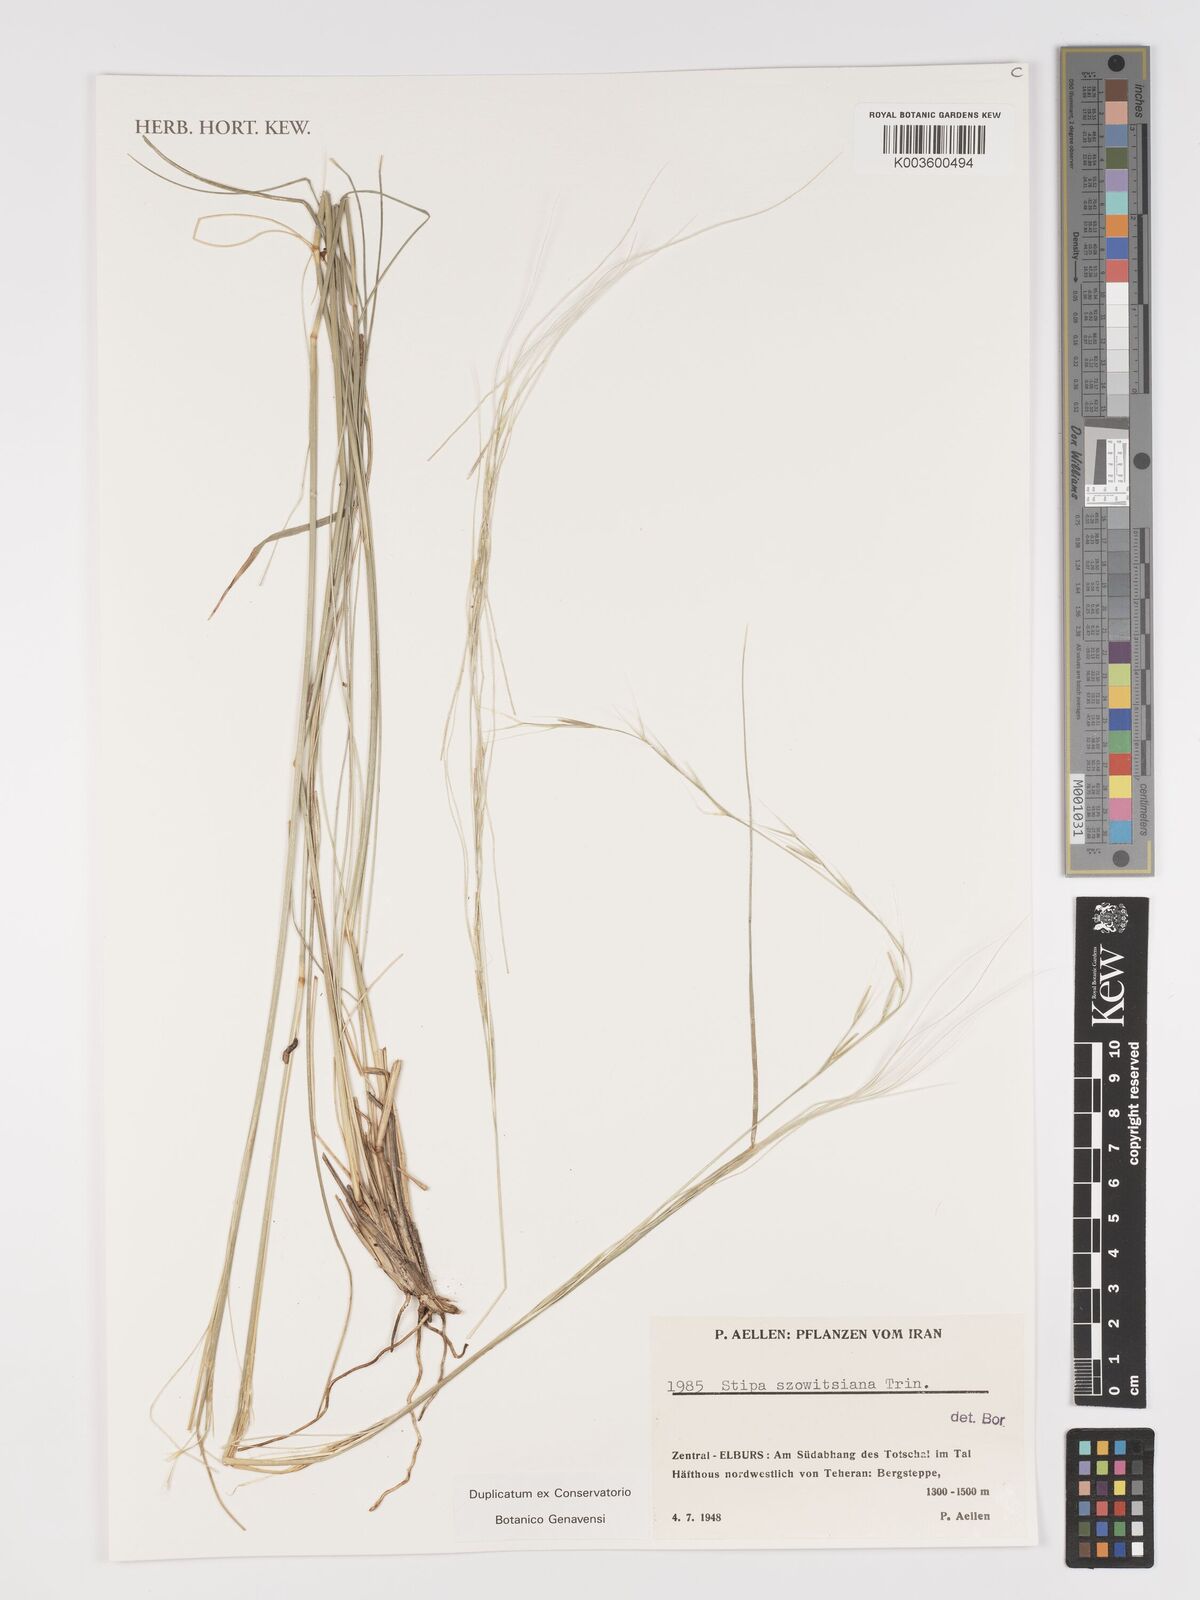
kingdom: Plantae
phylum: Tracheophyta
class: Liliopsida
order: Poales
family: Poaceae
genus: Stipa
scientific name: Stipa arabica
